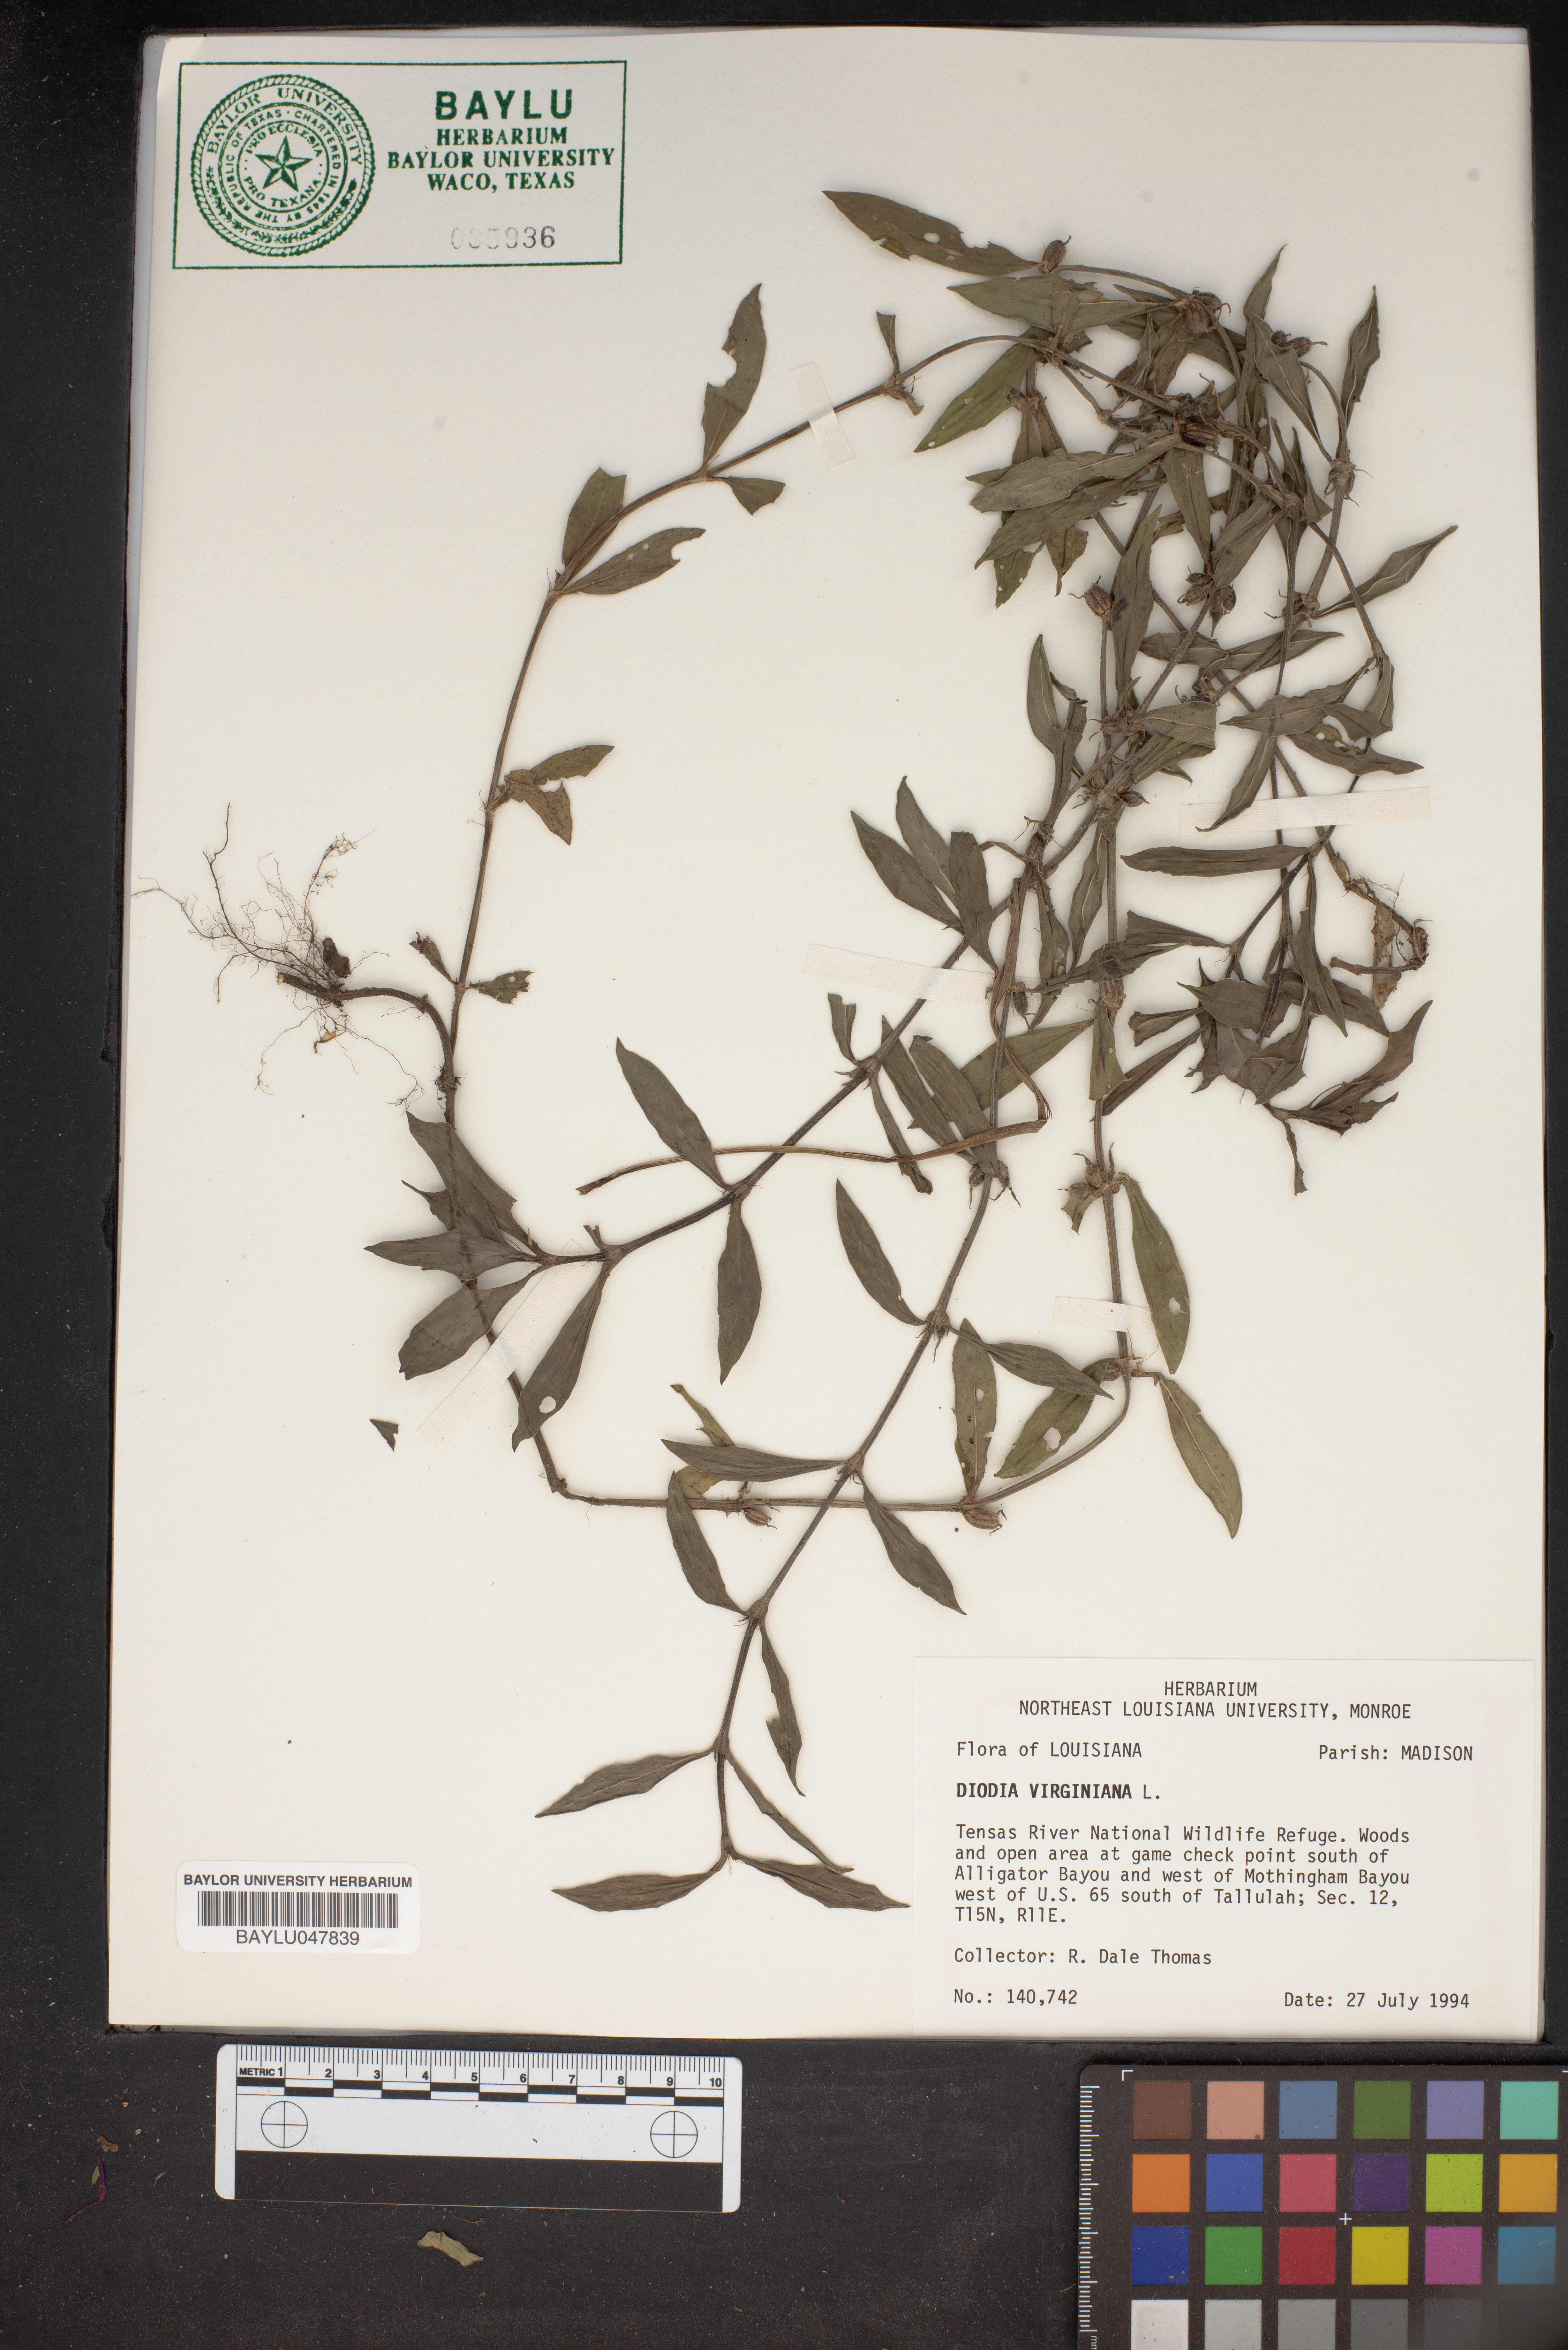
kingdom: Plantae
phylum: Tracheophyta
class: Magnoliopsida
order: Gentianales
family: Rubiaceae
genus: Diodia
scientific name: Diodia virginiana
